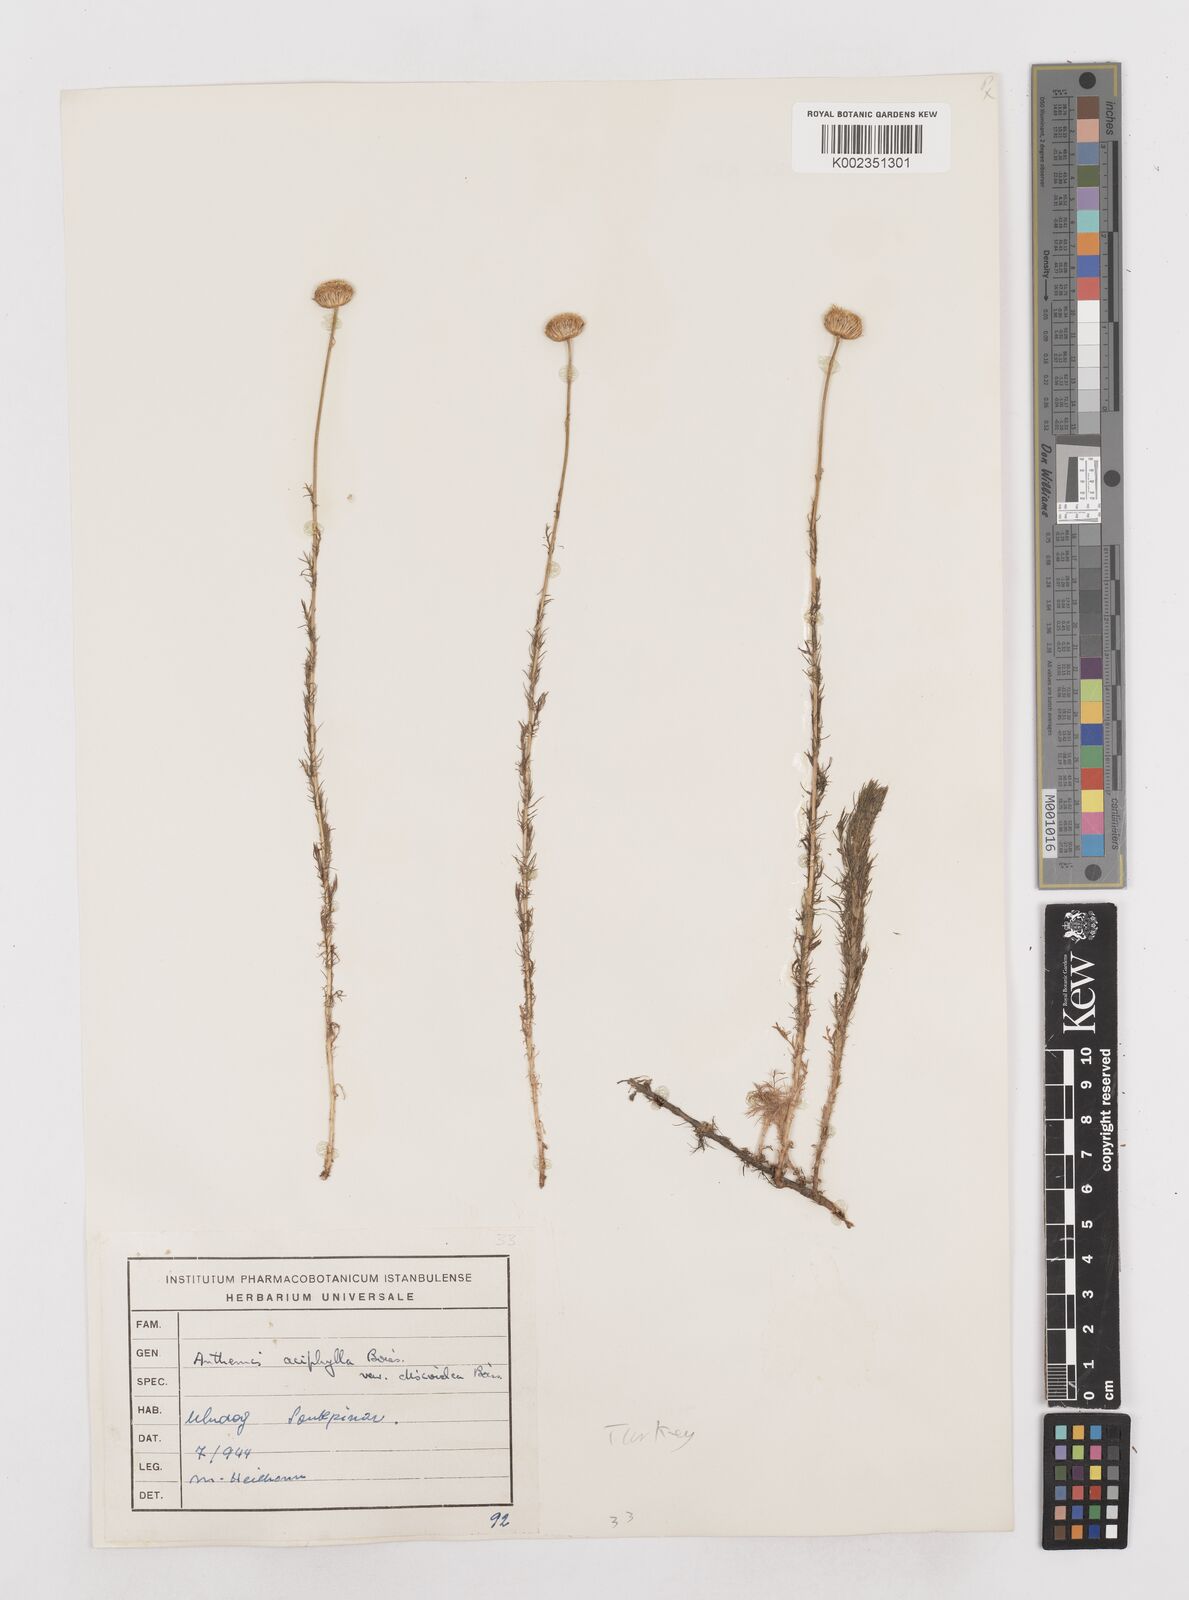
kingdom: Plantae
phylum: Tracheophyta
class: Magnoliopsida
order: Asterales
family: Asteraceae
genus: Anthemis
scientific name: Anthemis aciphylla
